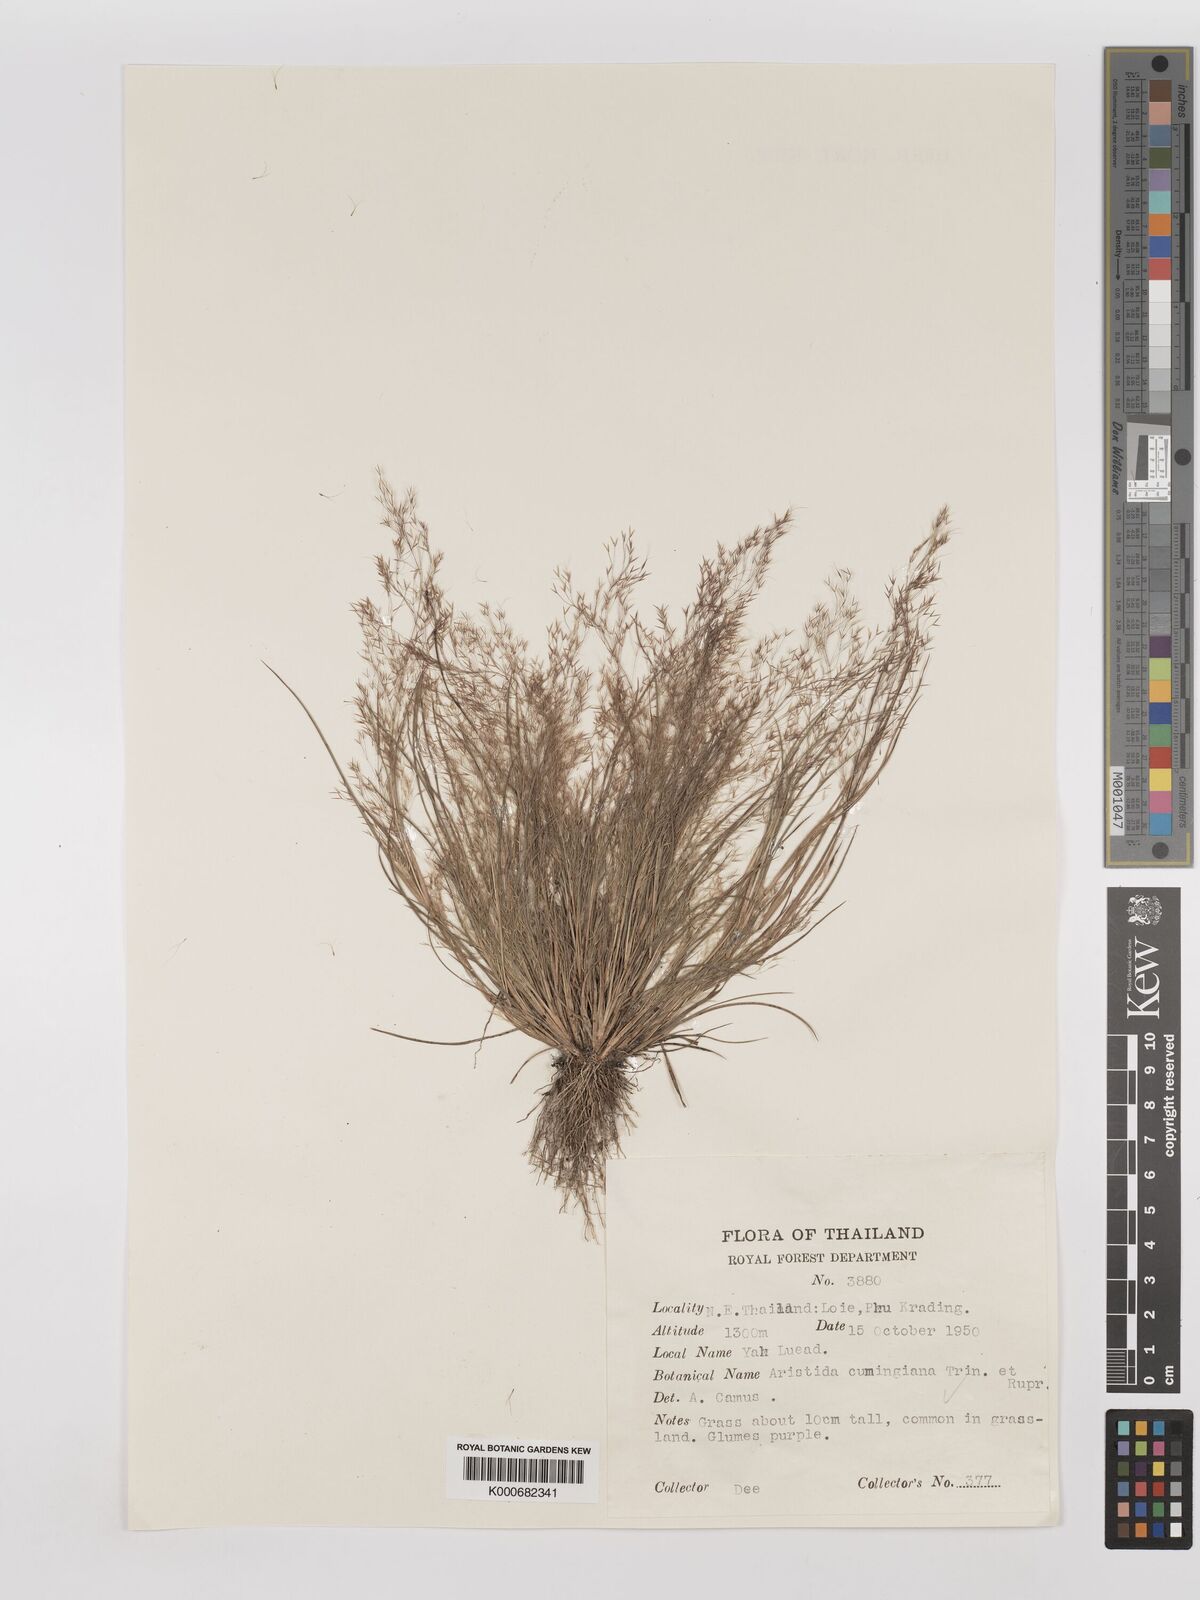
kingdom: Plantae
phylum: Tracheophyta
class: Liliopsida
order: Poales
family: Poaceae
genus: Aristida
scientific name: Aristida cumingiana
